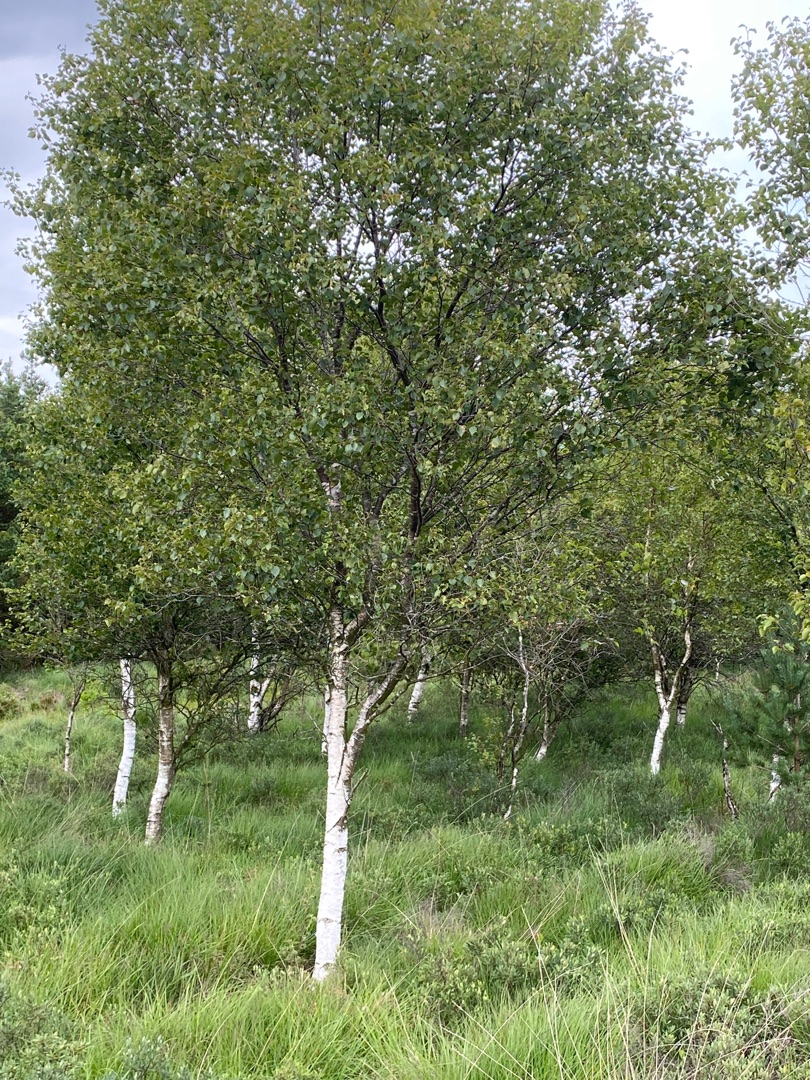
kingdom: Plantae
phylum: Tracheophyta
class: Magnoliopsida
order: Fagales
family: Betulaceae
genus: Betula
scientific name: Betula pubescens
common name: Dun-birk
